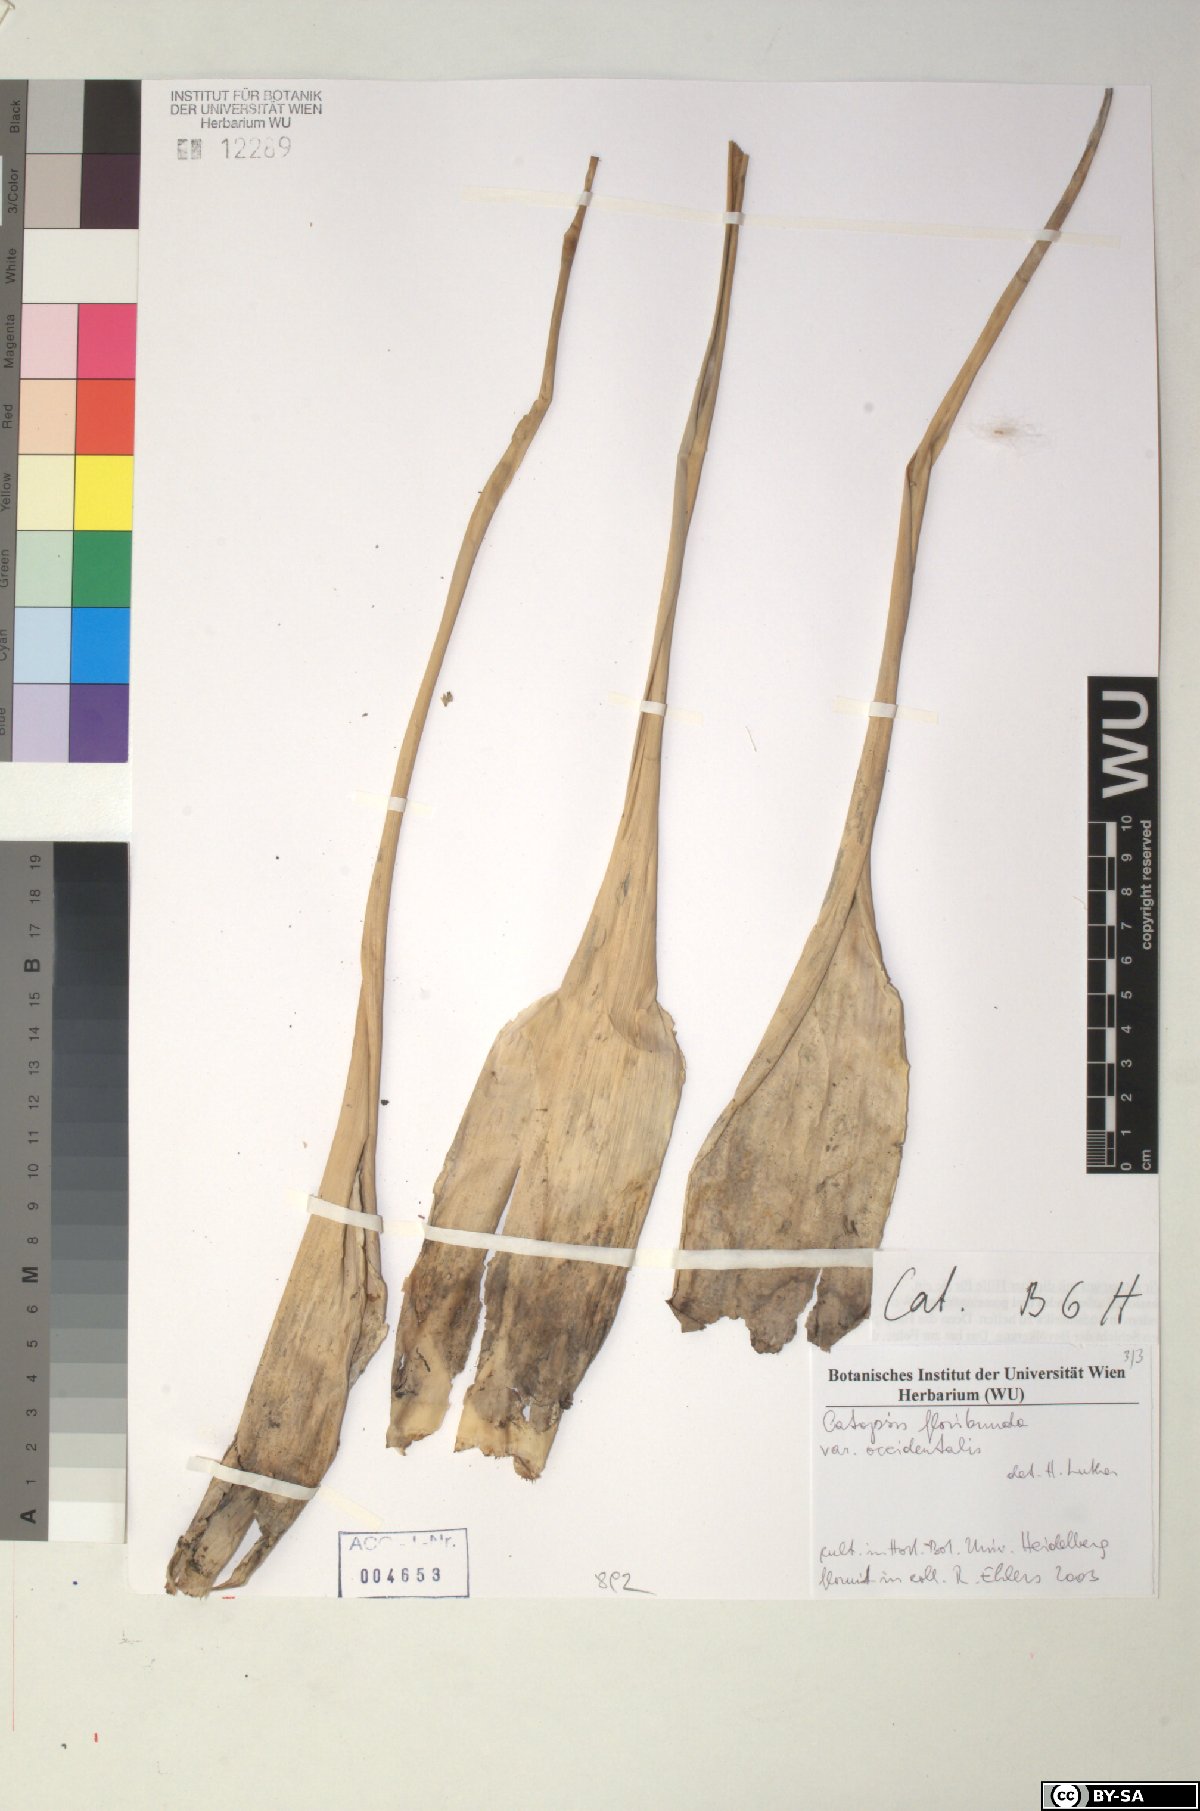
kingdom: Plantae
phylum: Tracheophyta
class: Liliopsida
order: Poales
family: Bromeliaceae
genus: Catopsis
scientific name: Catopsis floribunda
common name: Florida strap airplant
